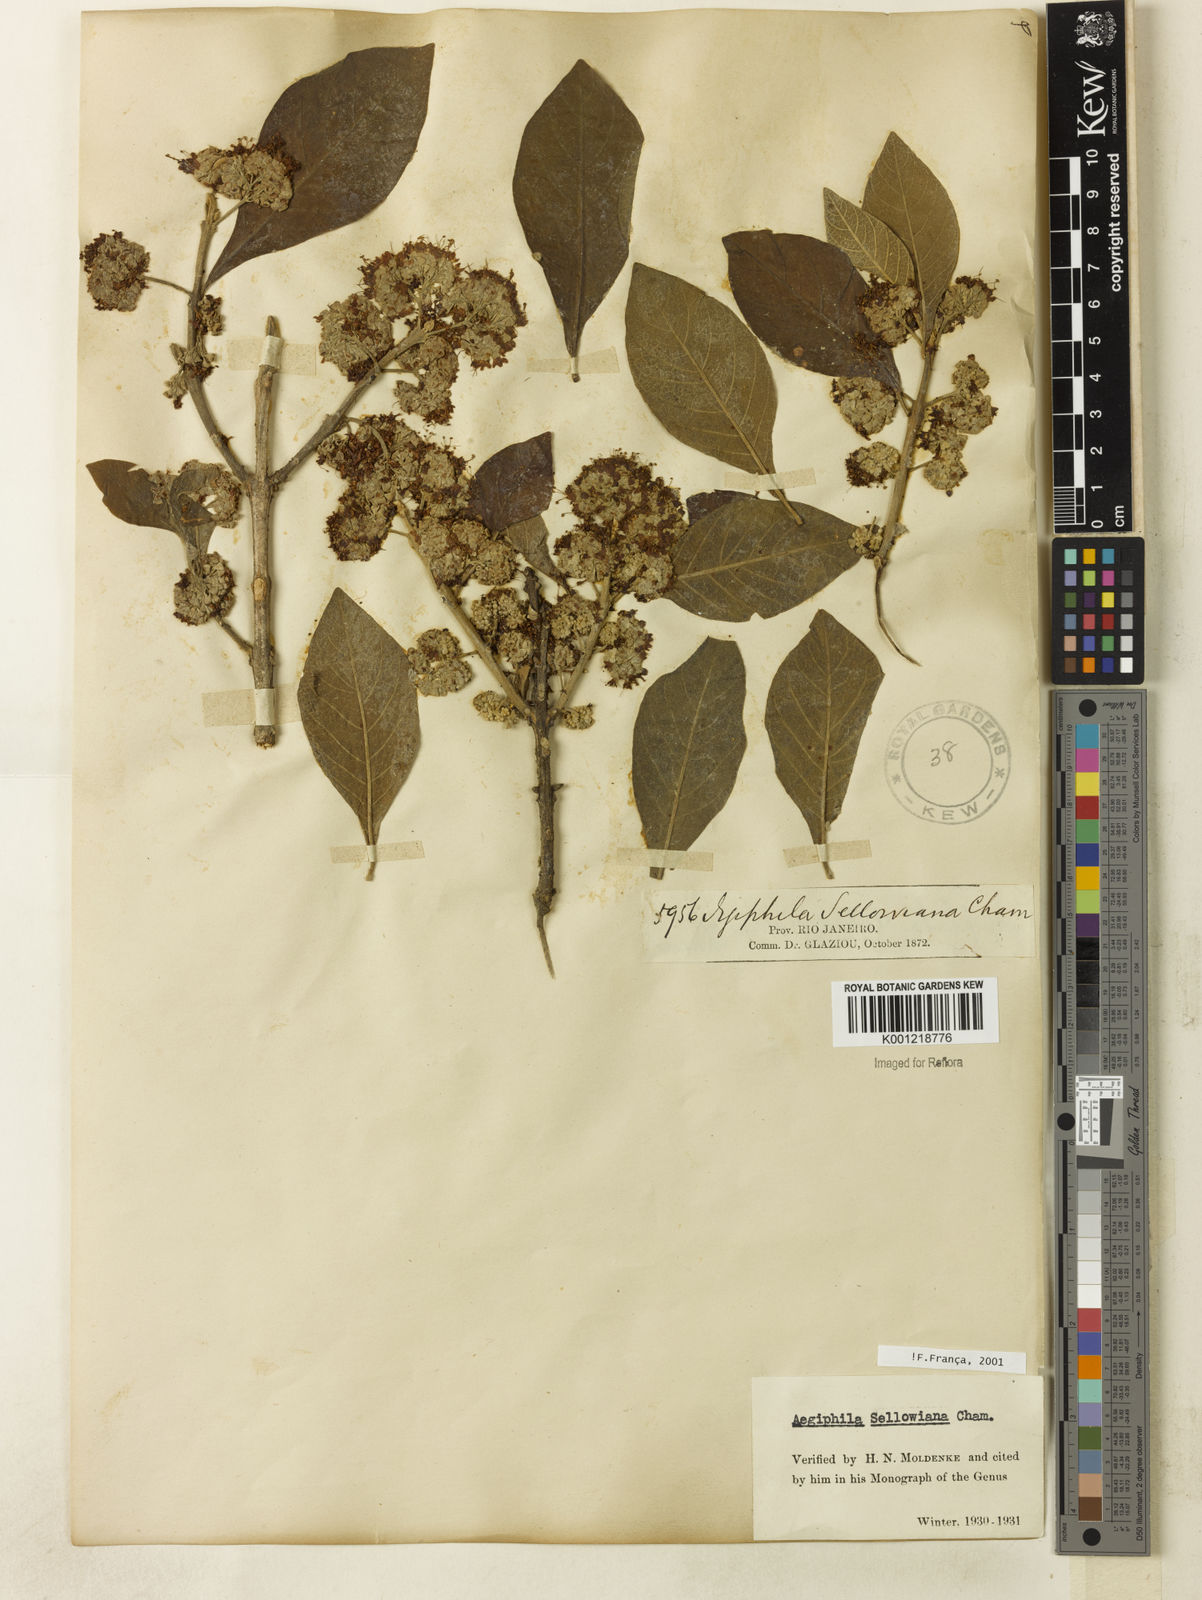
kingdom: Plantae
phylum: Tracheophyta
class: Magnoliopsida
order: Lamiales
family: Lamiaceae
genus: Aegiphila
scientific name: Aegiphila verticillata
